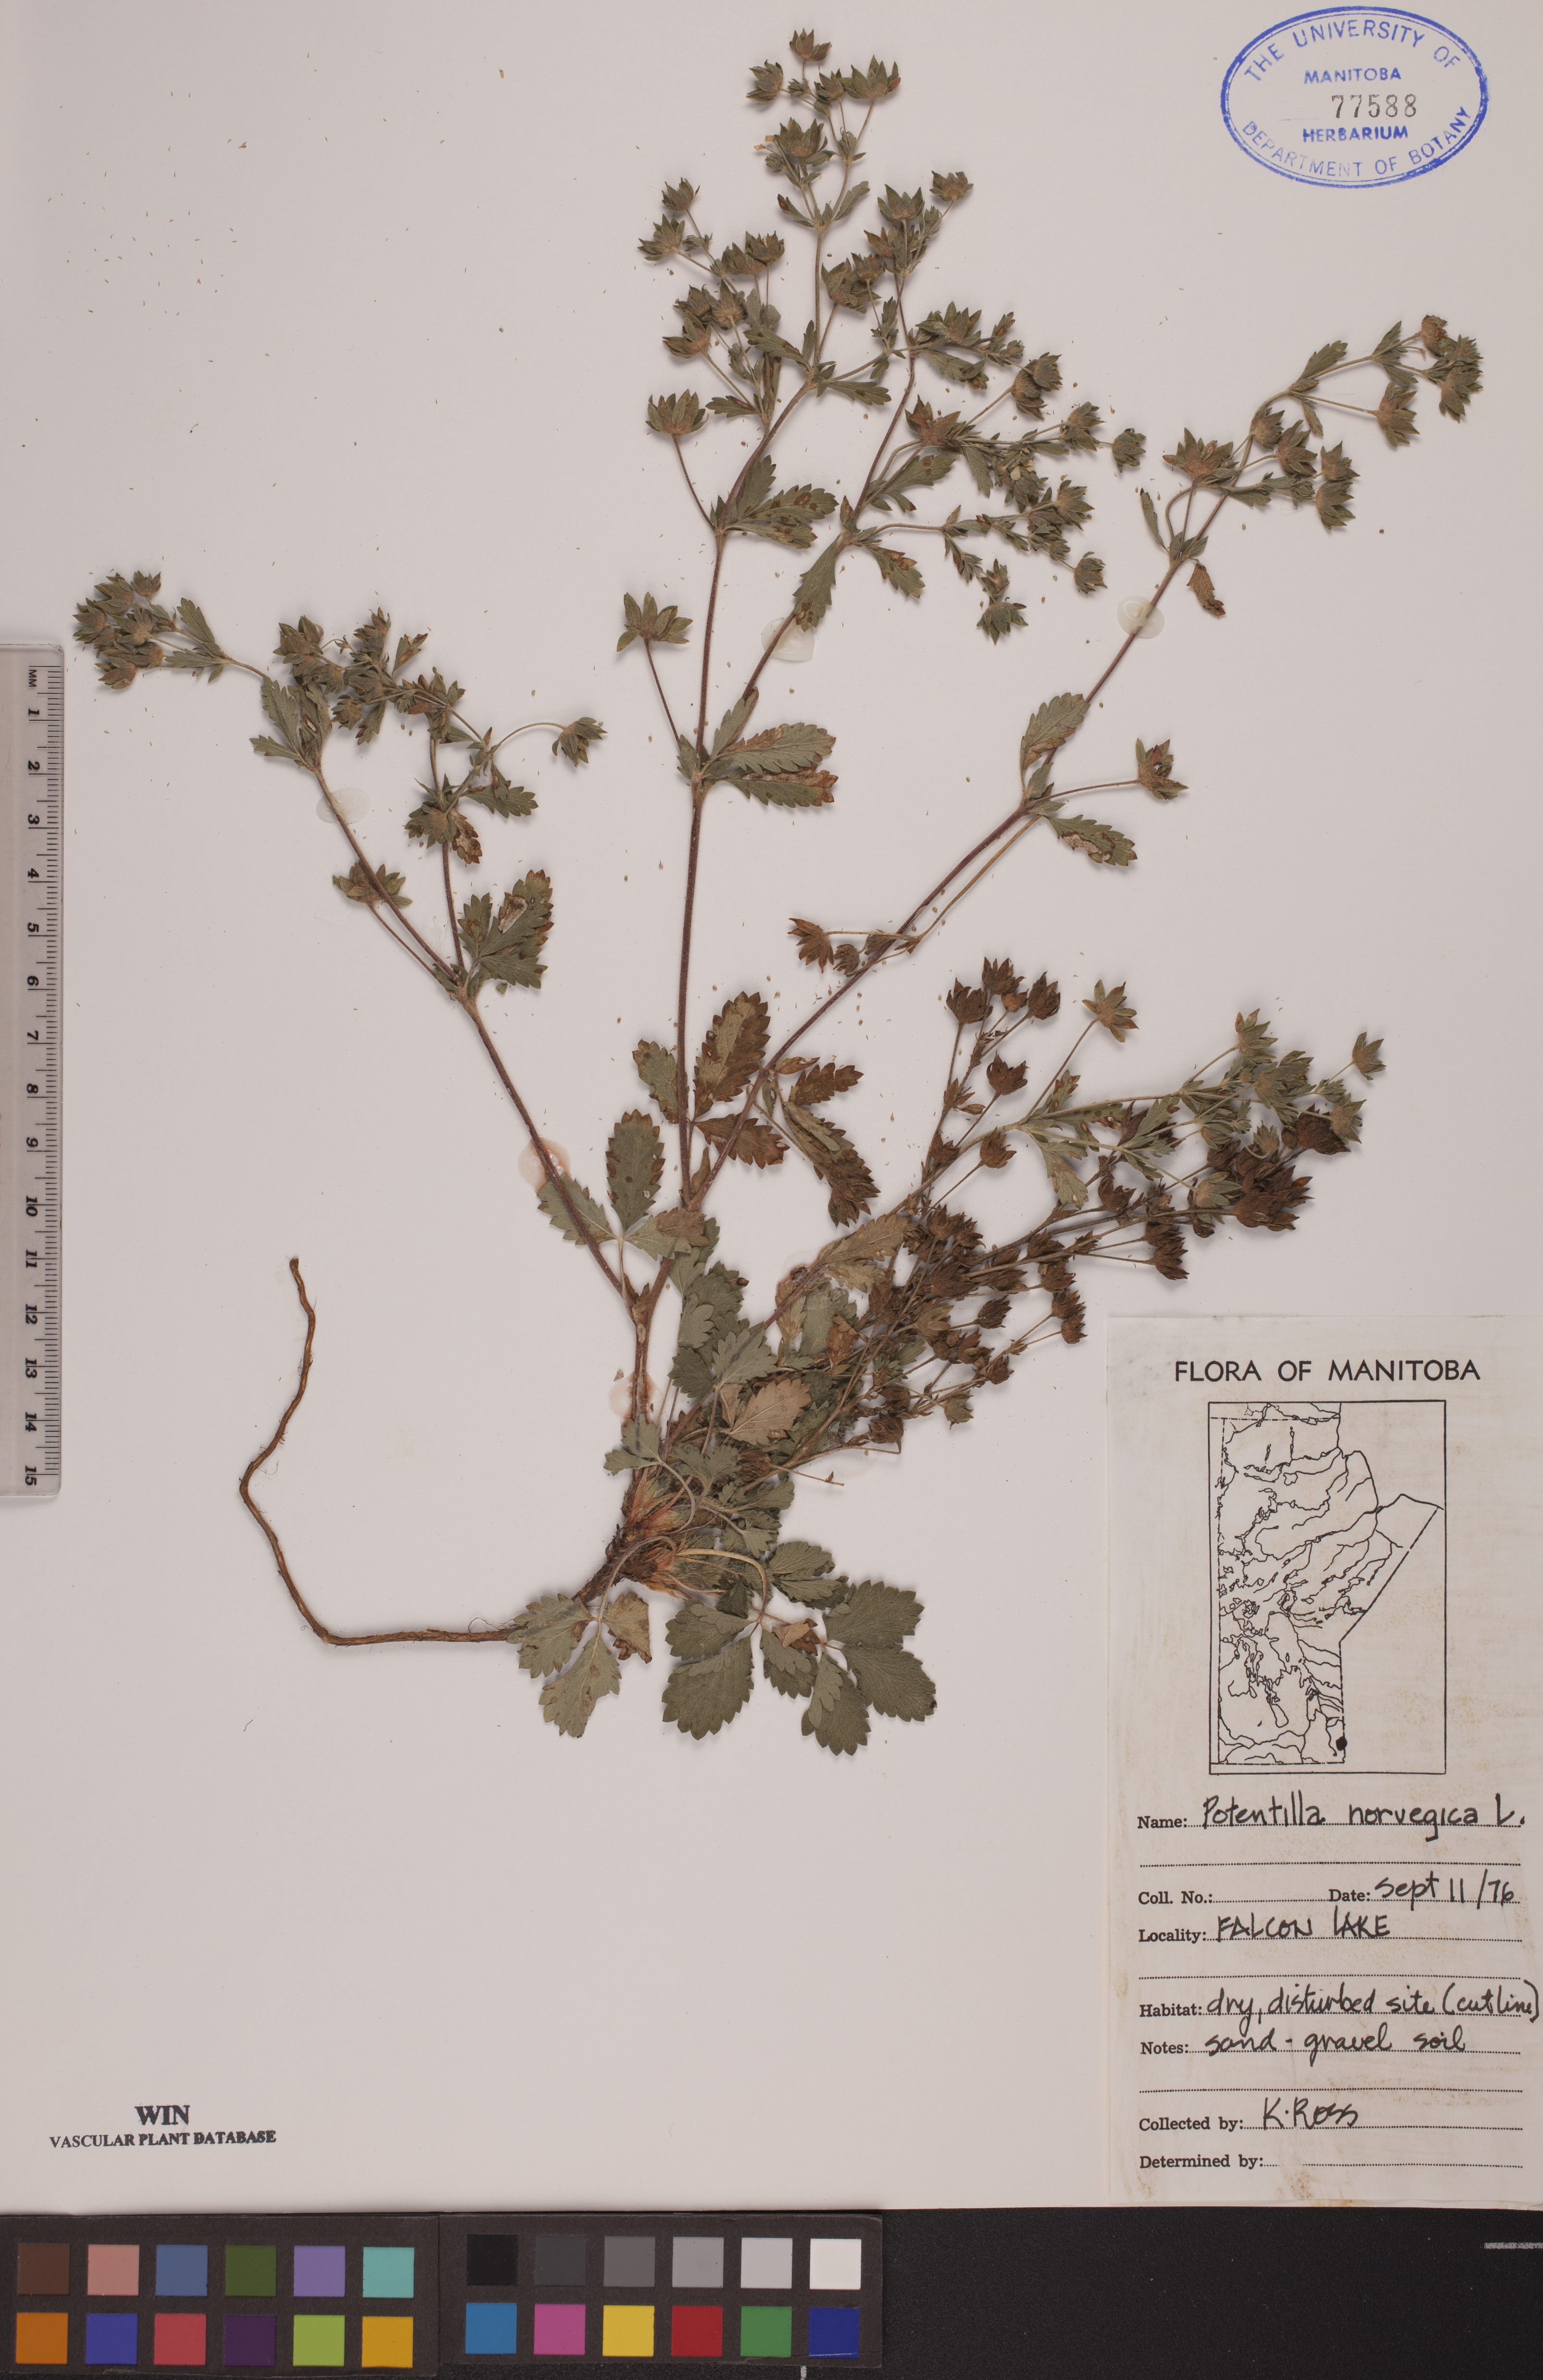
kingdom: Plantae
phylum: Tracheophyta
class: Magnoliopsida
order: Rosales
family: Rosaceae
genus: Potentilla
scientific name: Potentilla norvegica
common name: Ternate-leaved cinquefoil
